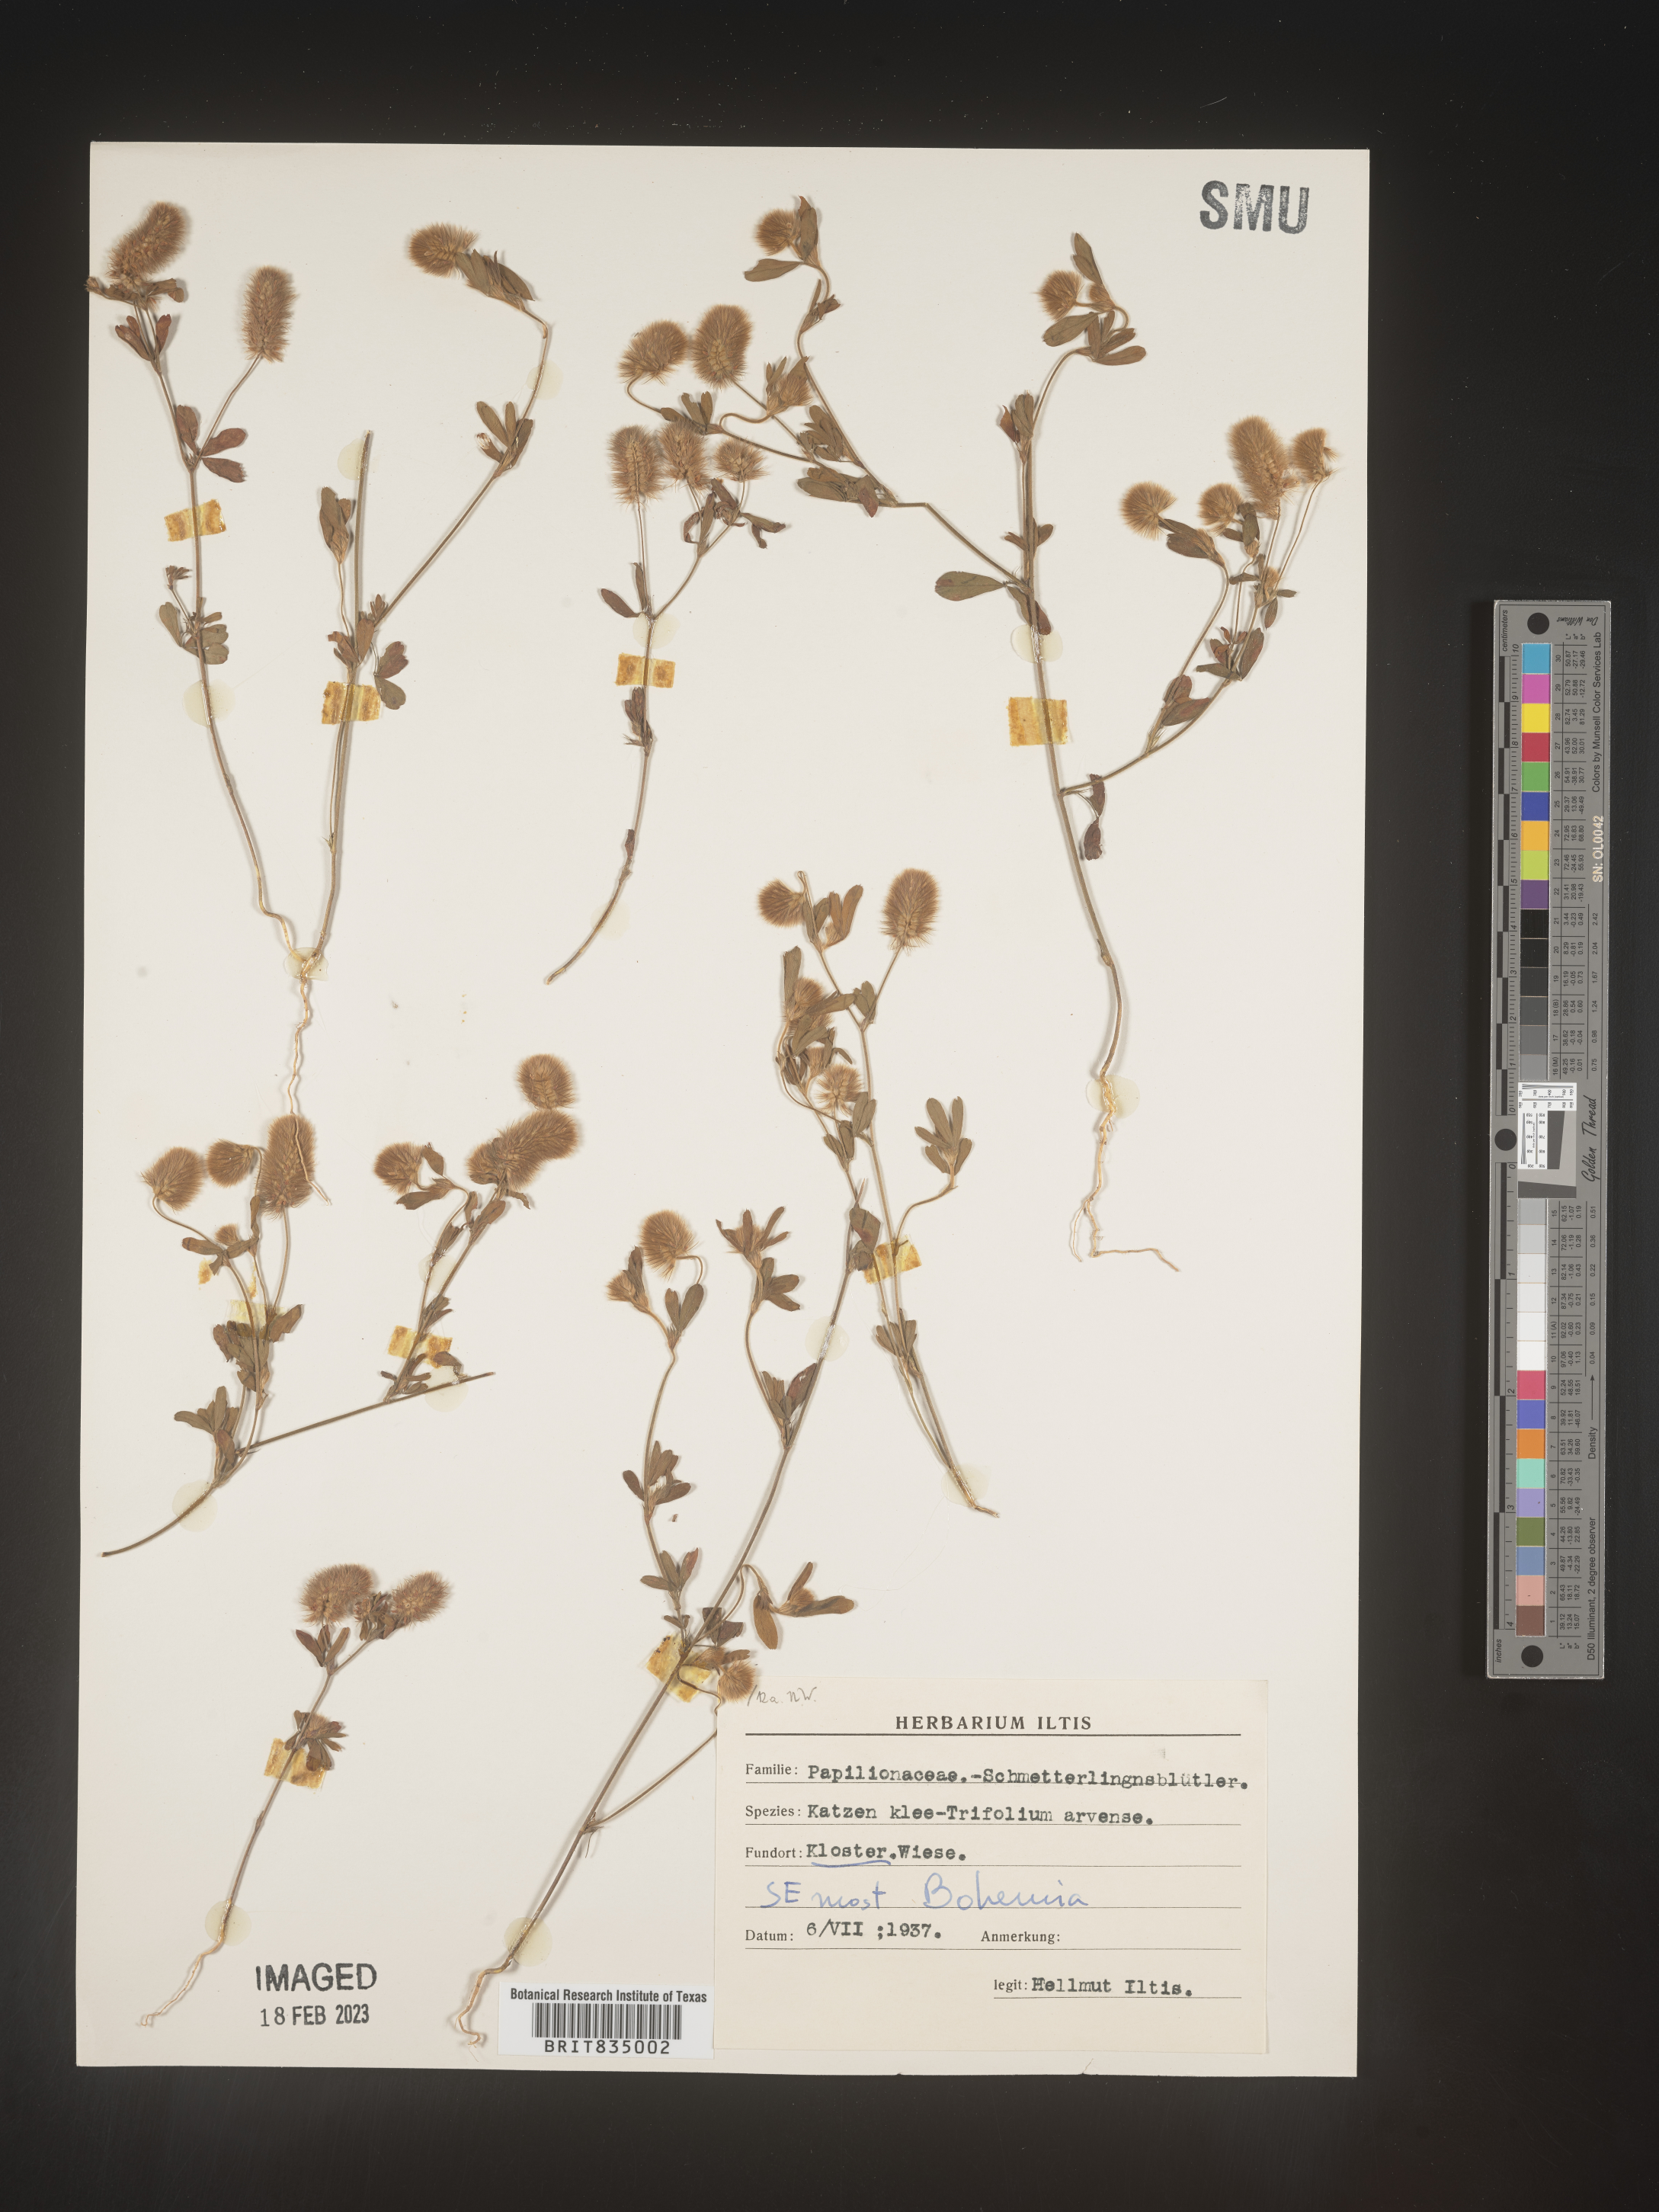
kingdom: Plantae
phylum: Tracheophyta
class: Magnoliopsida
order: Fabales
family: Fabaceae
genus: Trifolium
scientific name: Trifolium
